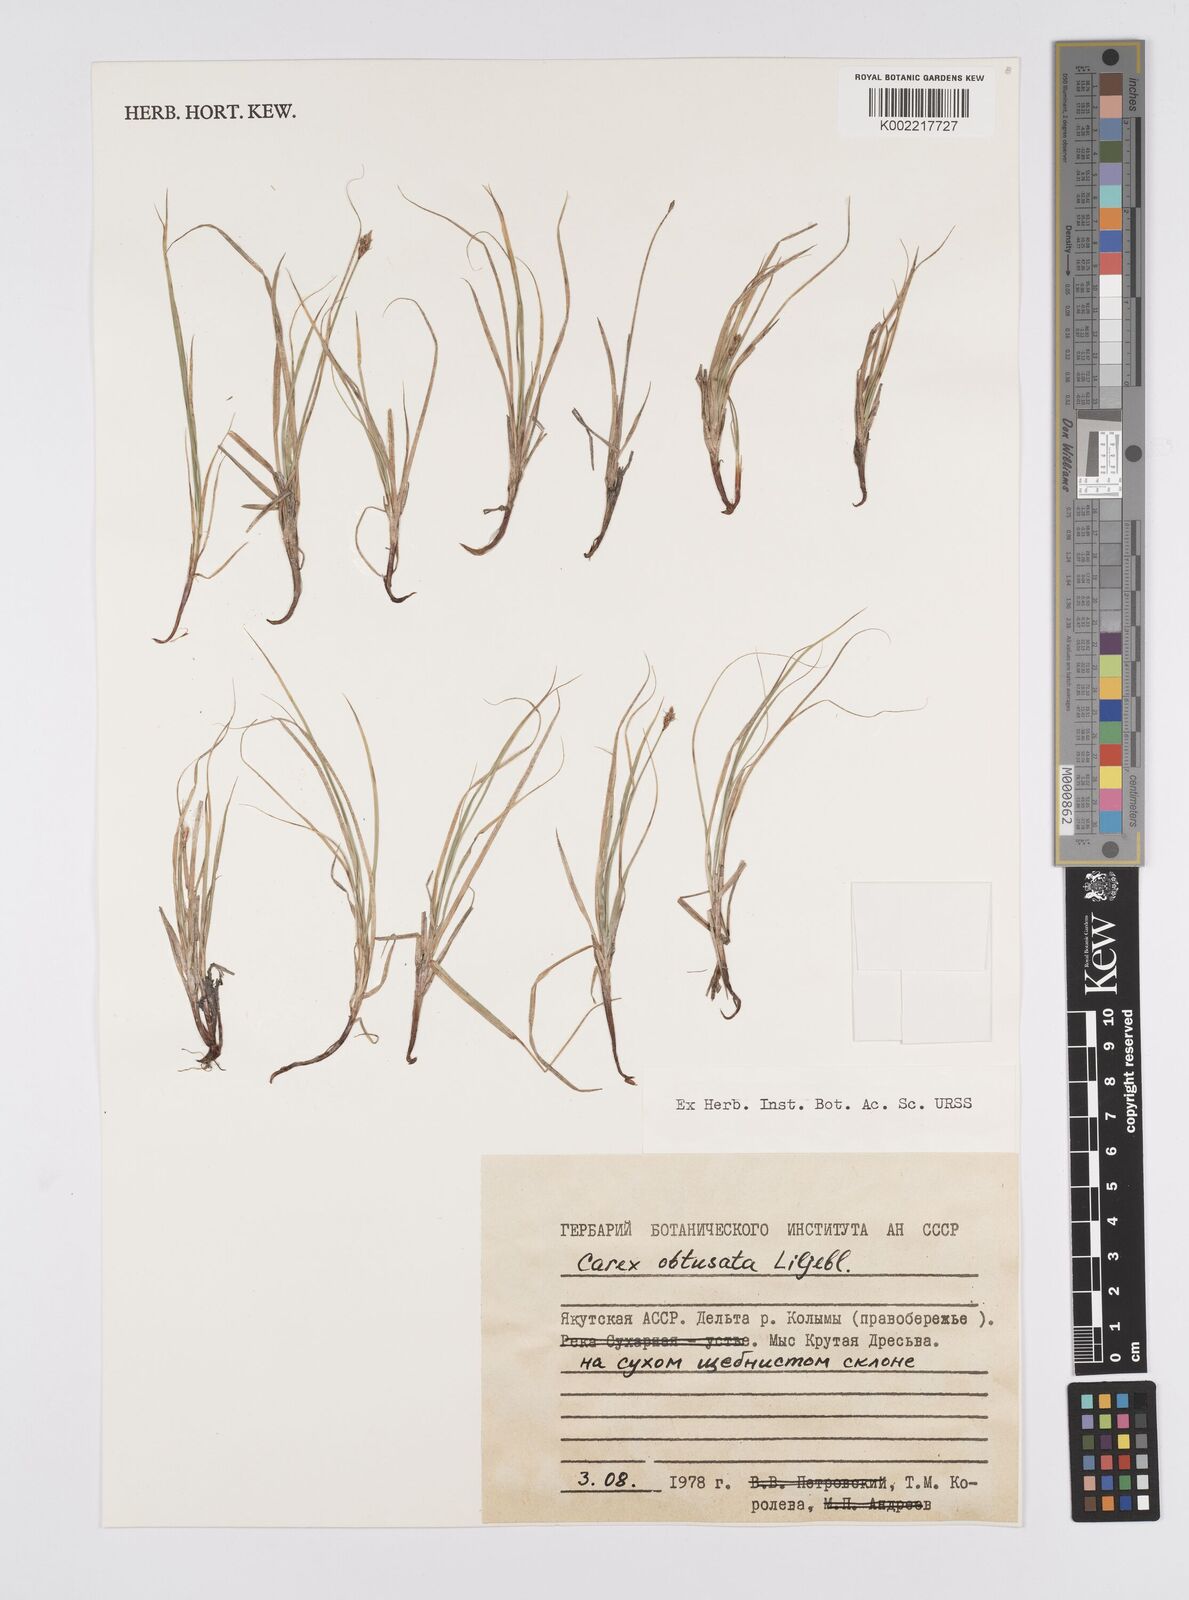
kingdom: Plantae
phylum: Tracheophyta
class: Liliopsida
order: Poales
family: Cyperaceae
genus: Carex
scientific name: Carex obtusata
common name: Blunt sedge
